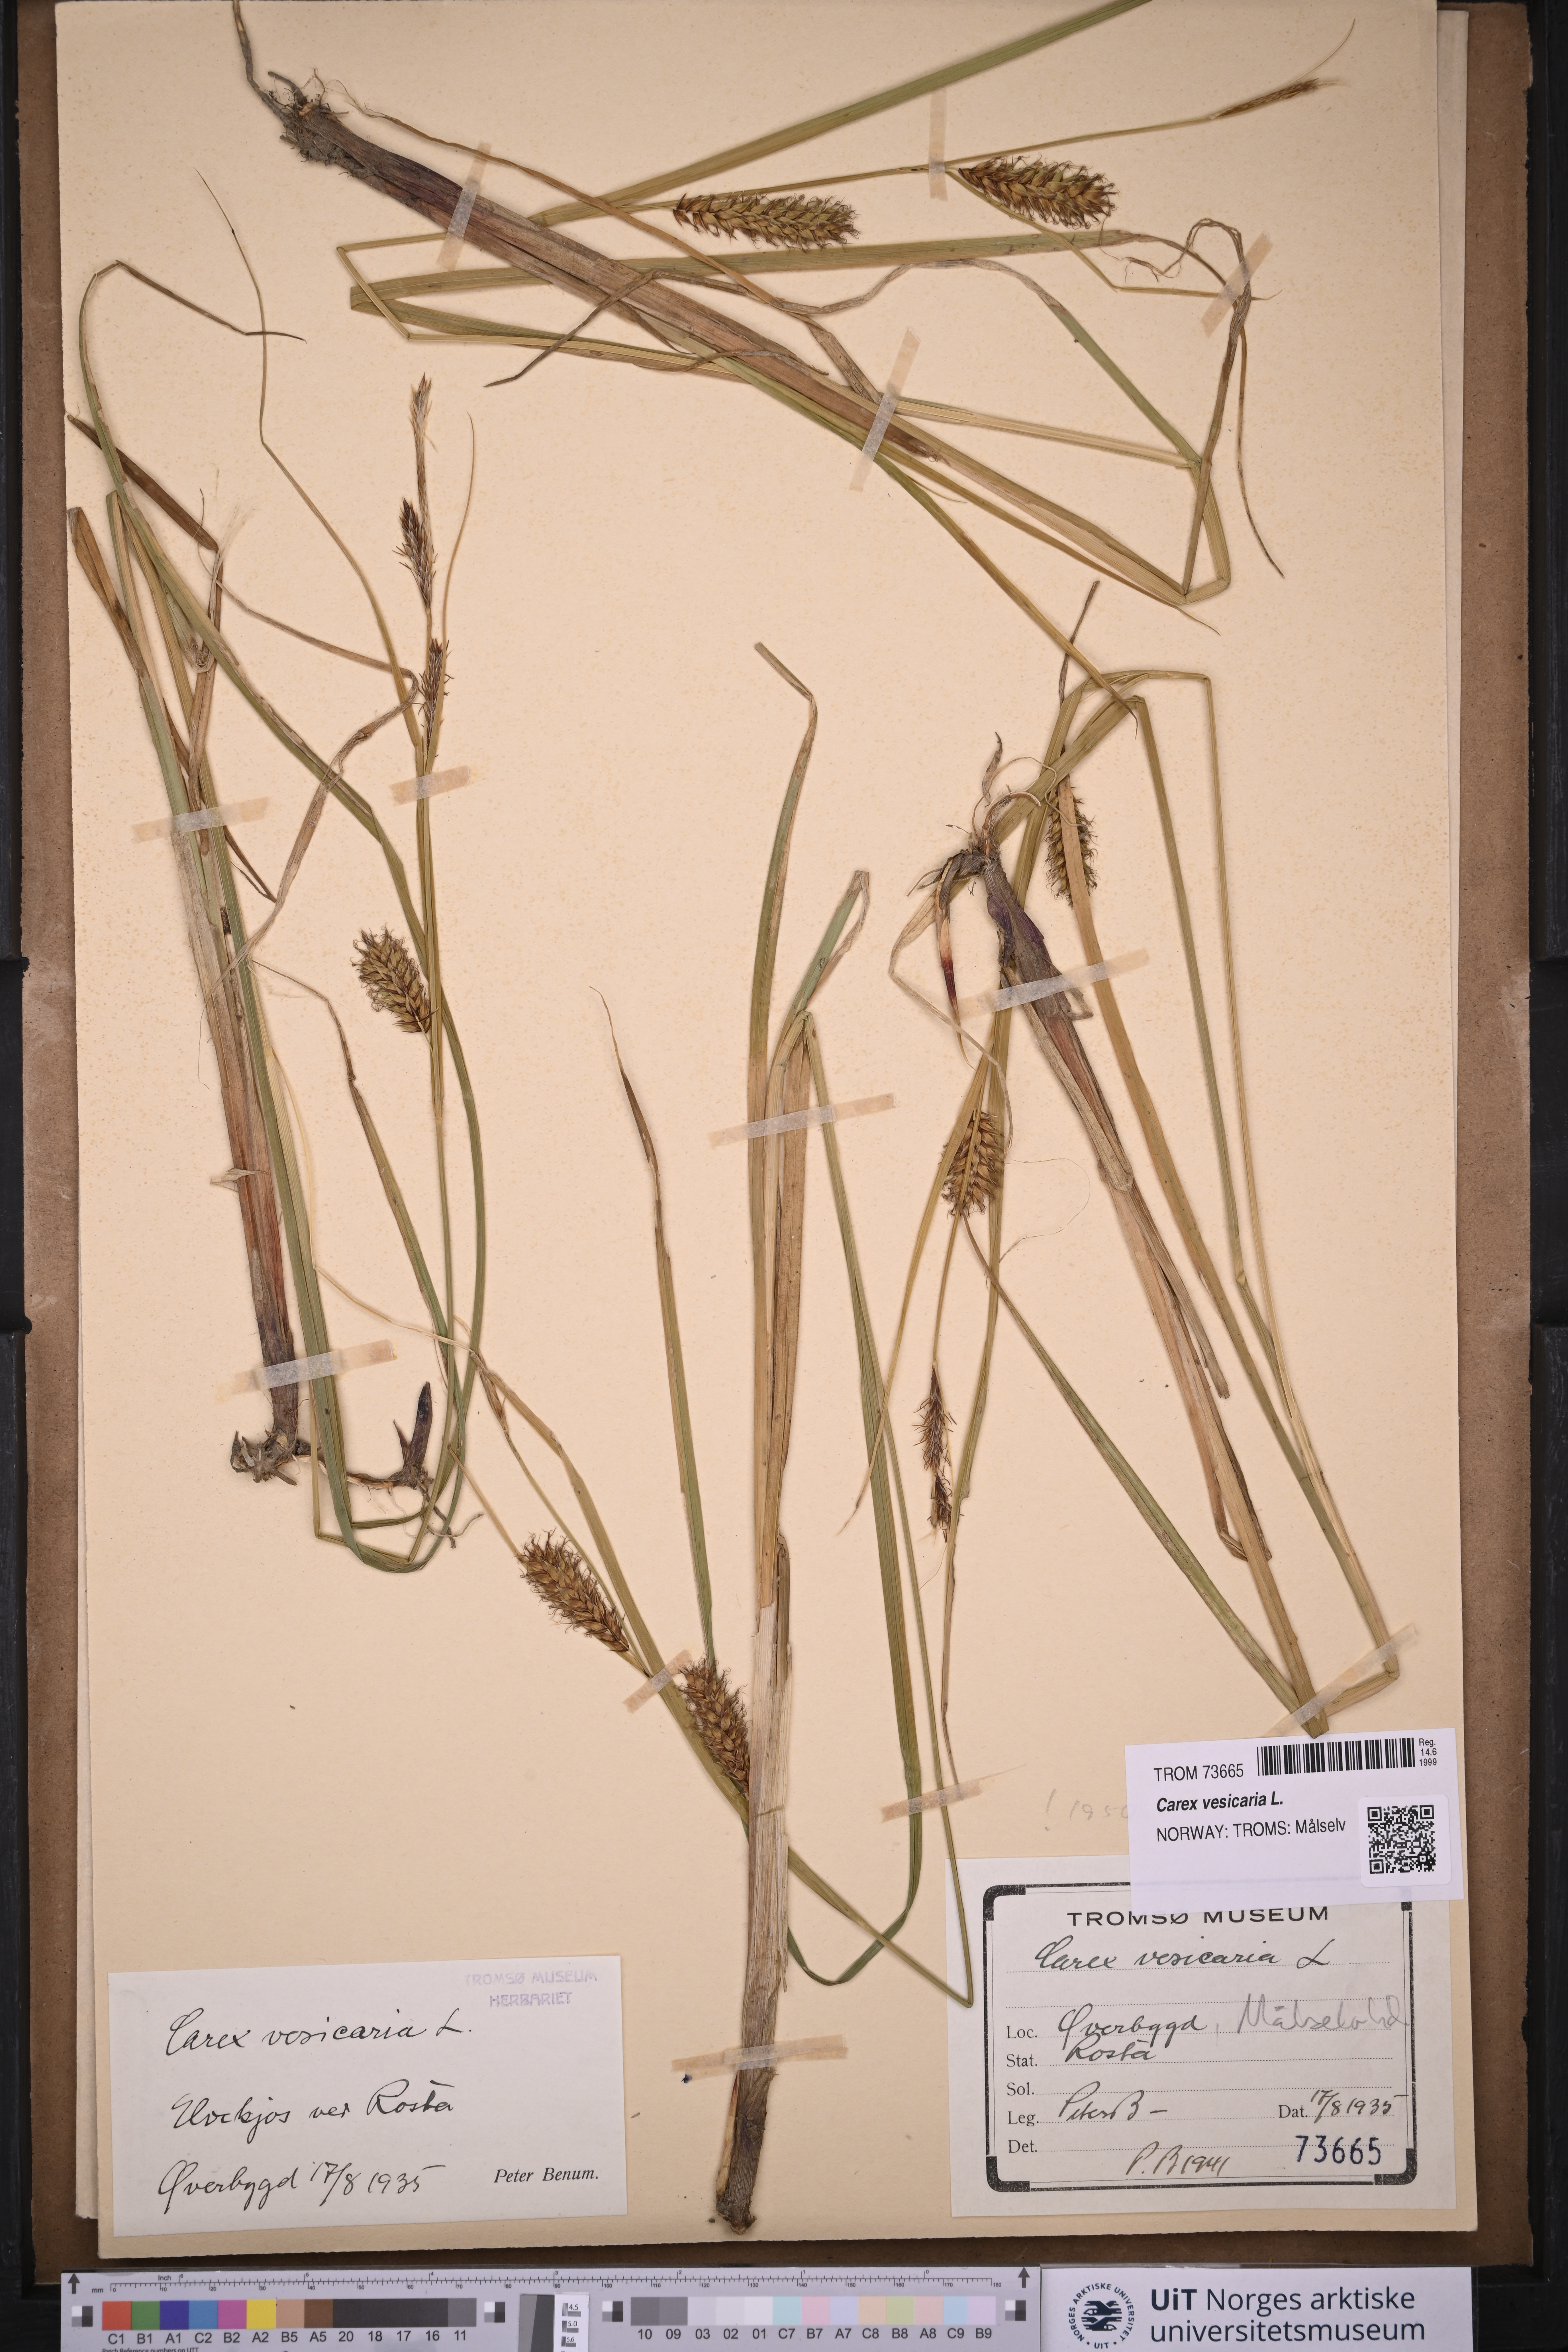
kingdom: Plantae
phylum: Tracheophyta
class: Liliopsida
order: Poales
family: Cyperaceae
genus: Carex
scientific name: Carex vesicaria
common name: Bladder-sedge
